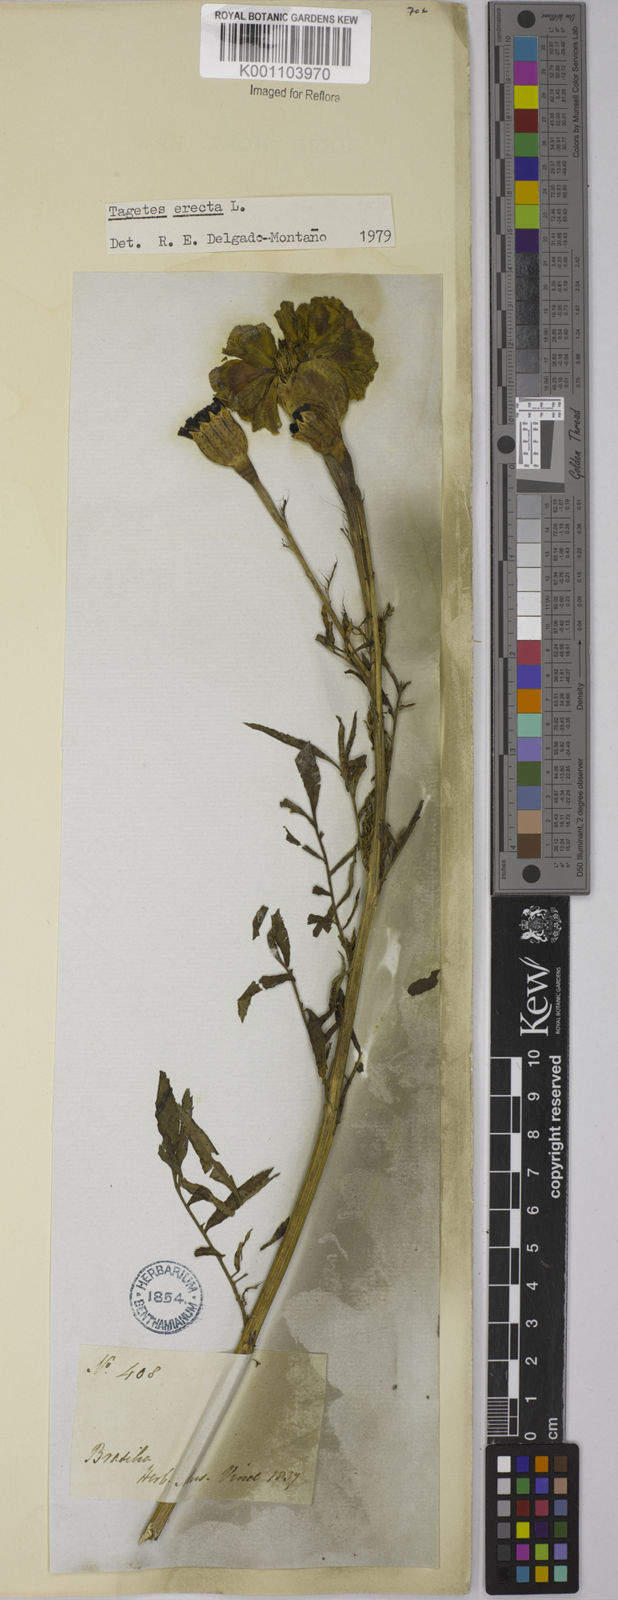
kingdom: Plantae
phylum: Tracheophyta
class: Magnoliopsida
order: Asterales
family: Asteraceae
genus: Tagetes
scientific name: Tagetes erecta
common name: African marigold
